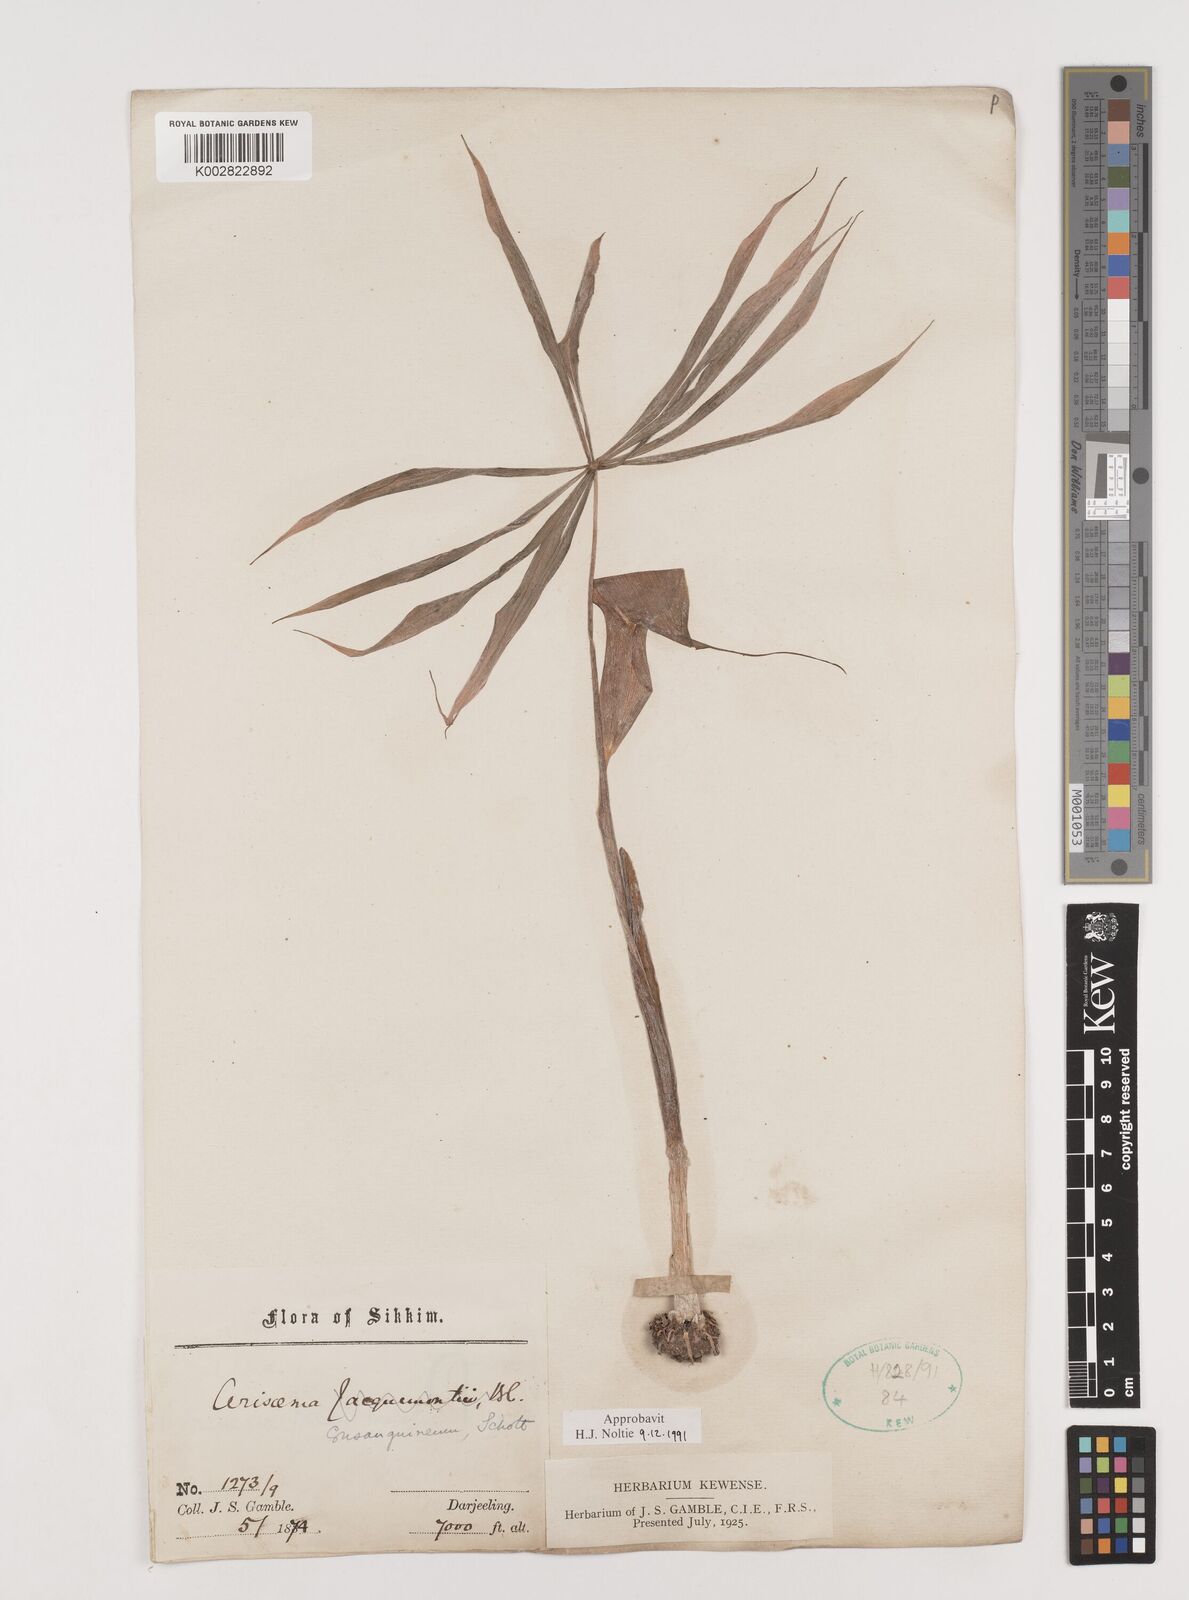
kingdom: Plantae
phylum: Tracheophyta
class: Liliopsida
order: Alismatales
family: Araceae
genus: Arisaema
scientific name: Arisaema erubescens
